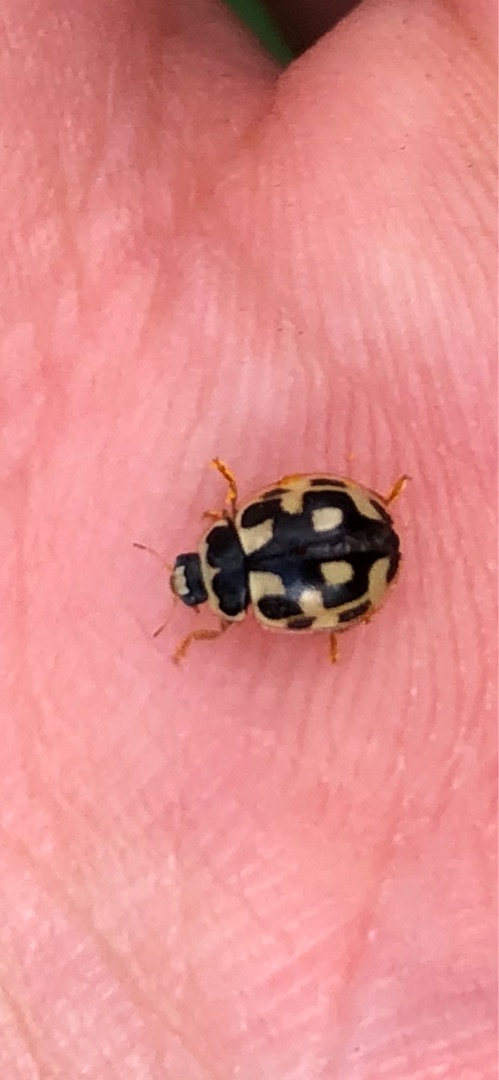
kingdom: Animalia
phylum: Arthropoda
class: Insecta
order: Coleoptera
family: Coccinellidae
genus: Propylaea
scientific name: Propylaea quatuordecimpunctata
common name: Skakbræt
